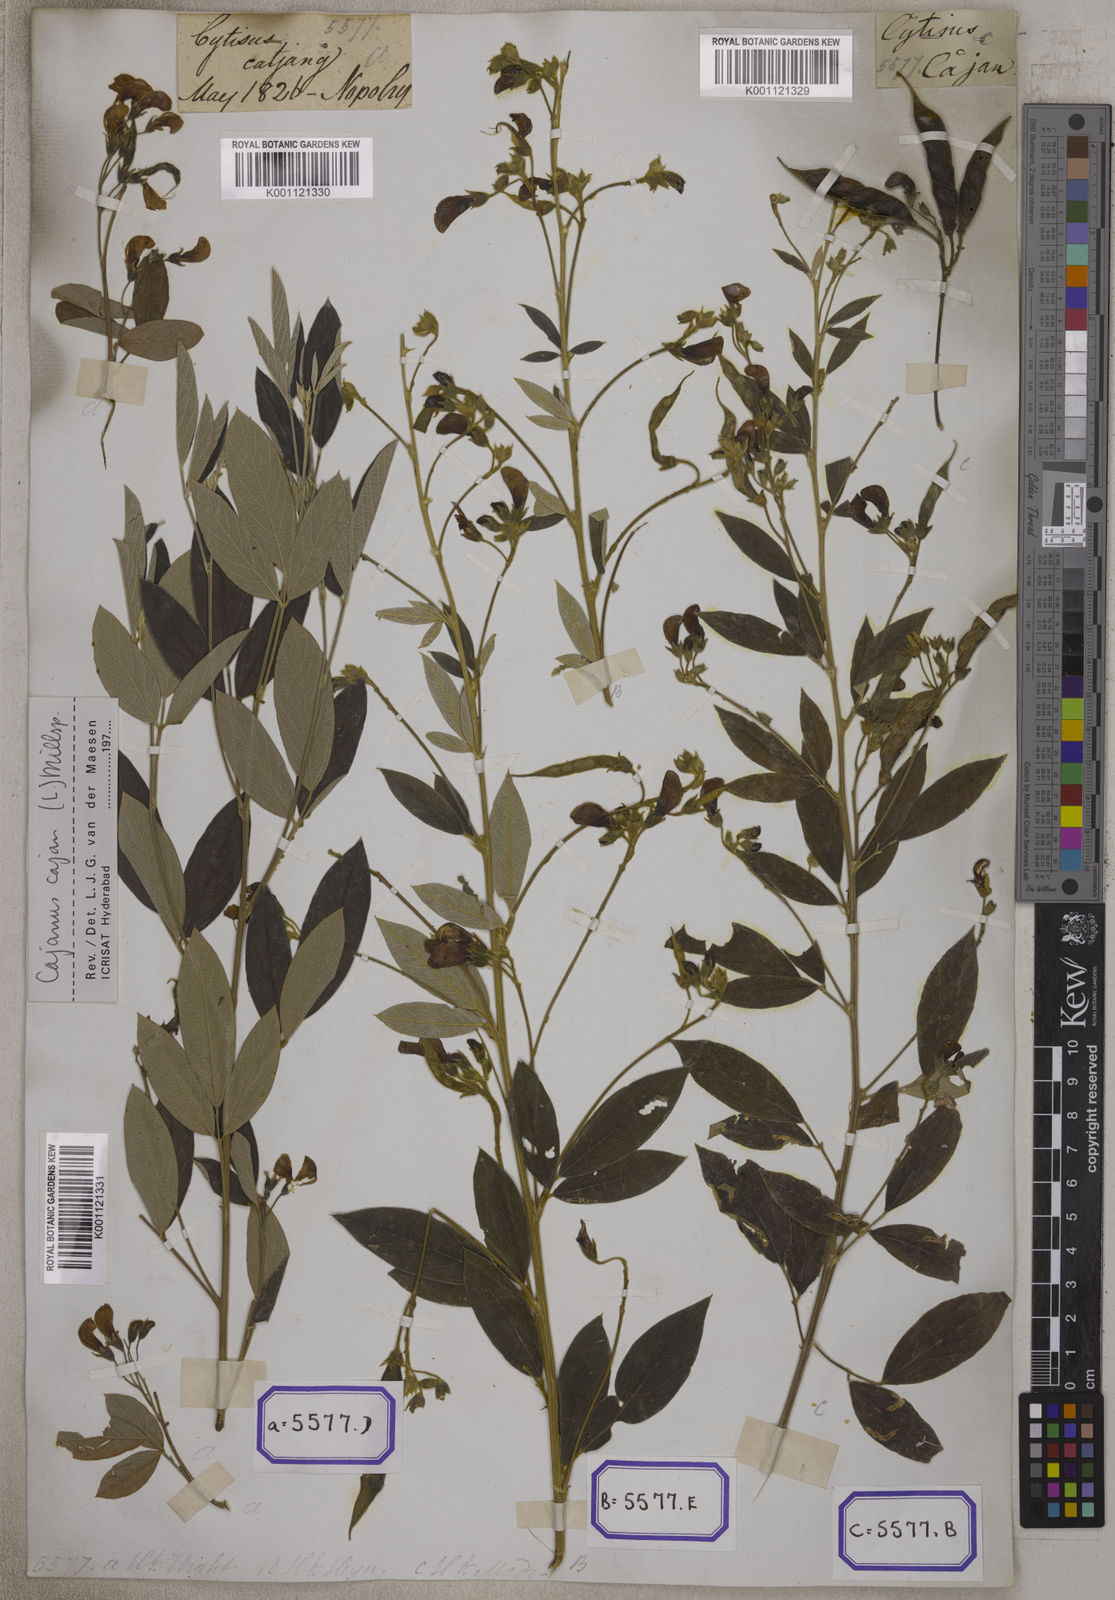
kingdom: Plantae
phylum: Tracheophyta
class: Magnoliopsida
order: Fabales
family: Fabaceae
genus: Cajanus
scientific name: Cajanus cajan
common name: Pigeonpea
